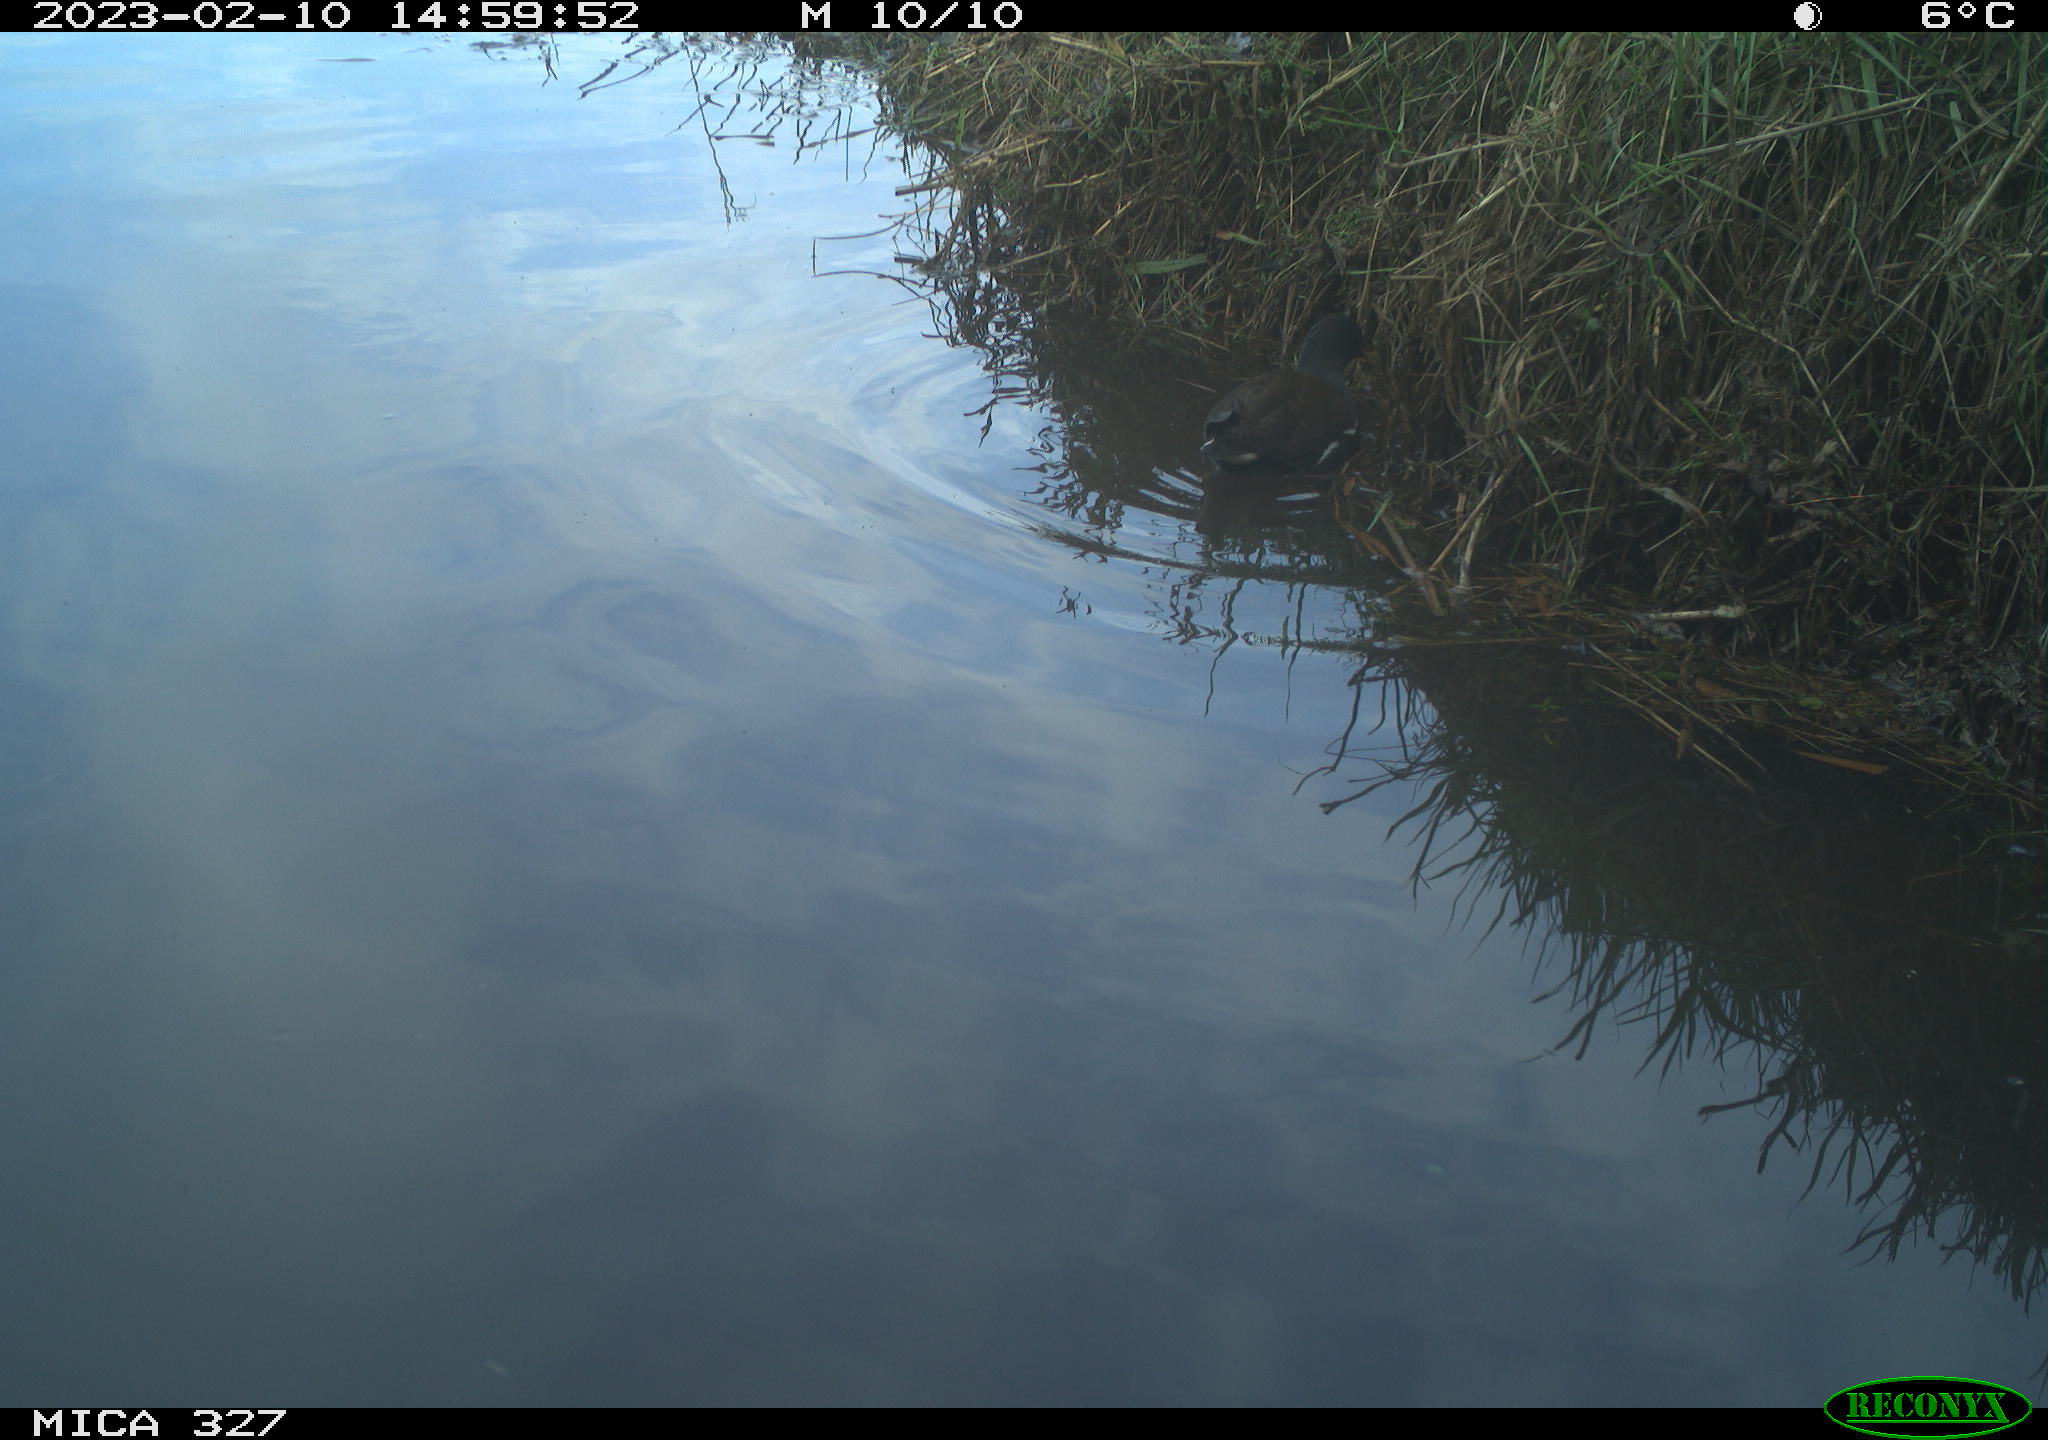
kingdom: Animalia
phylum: Chordata
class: Aves
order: Gruiformes
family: Rallidae
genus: Gallinula
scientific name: Gallinula chloropus
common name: Common moorhen
